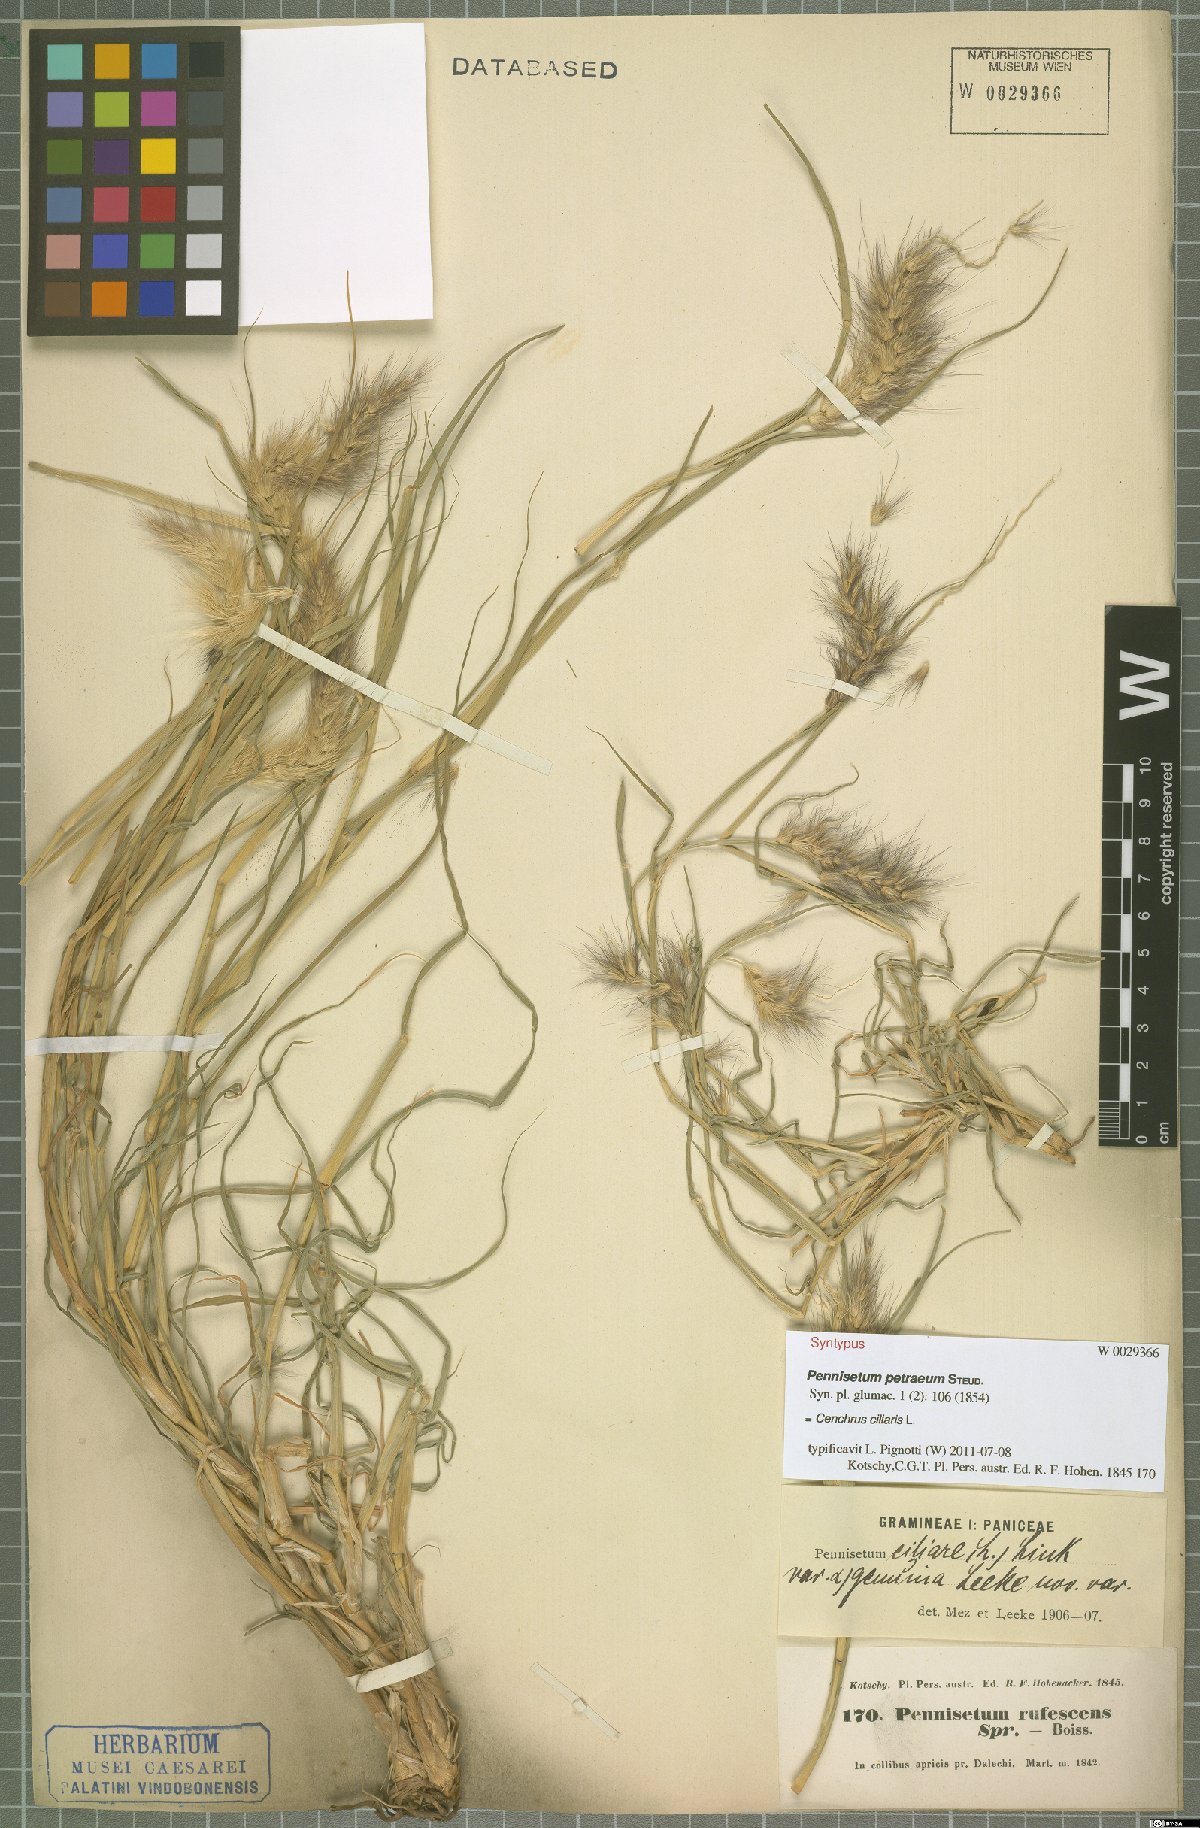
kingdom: Plantae
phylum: Tracheophyta
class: Liliopsida
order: Poales
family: Poaceae
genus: Cenchrus
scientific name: Cenchrus ciliaris
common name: Buffelgrass
